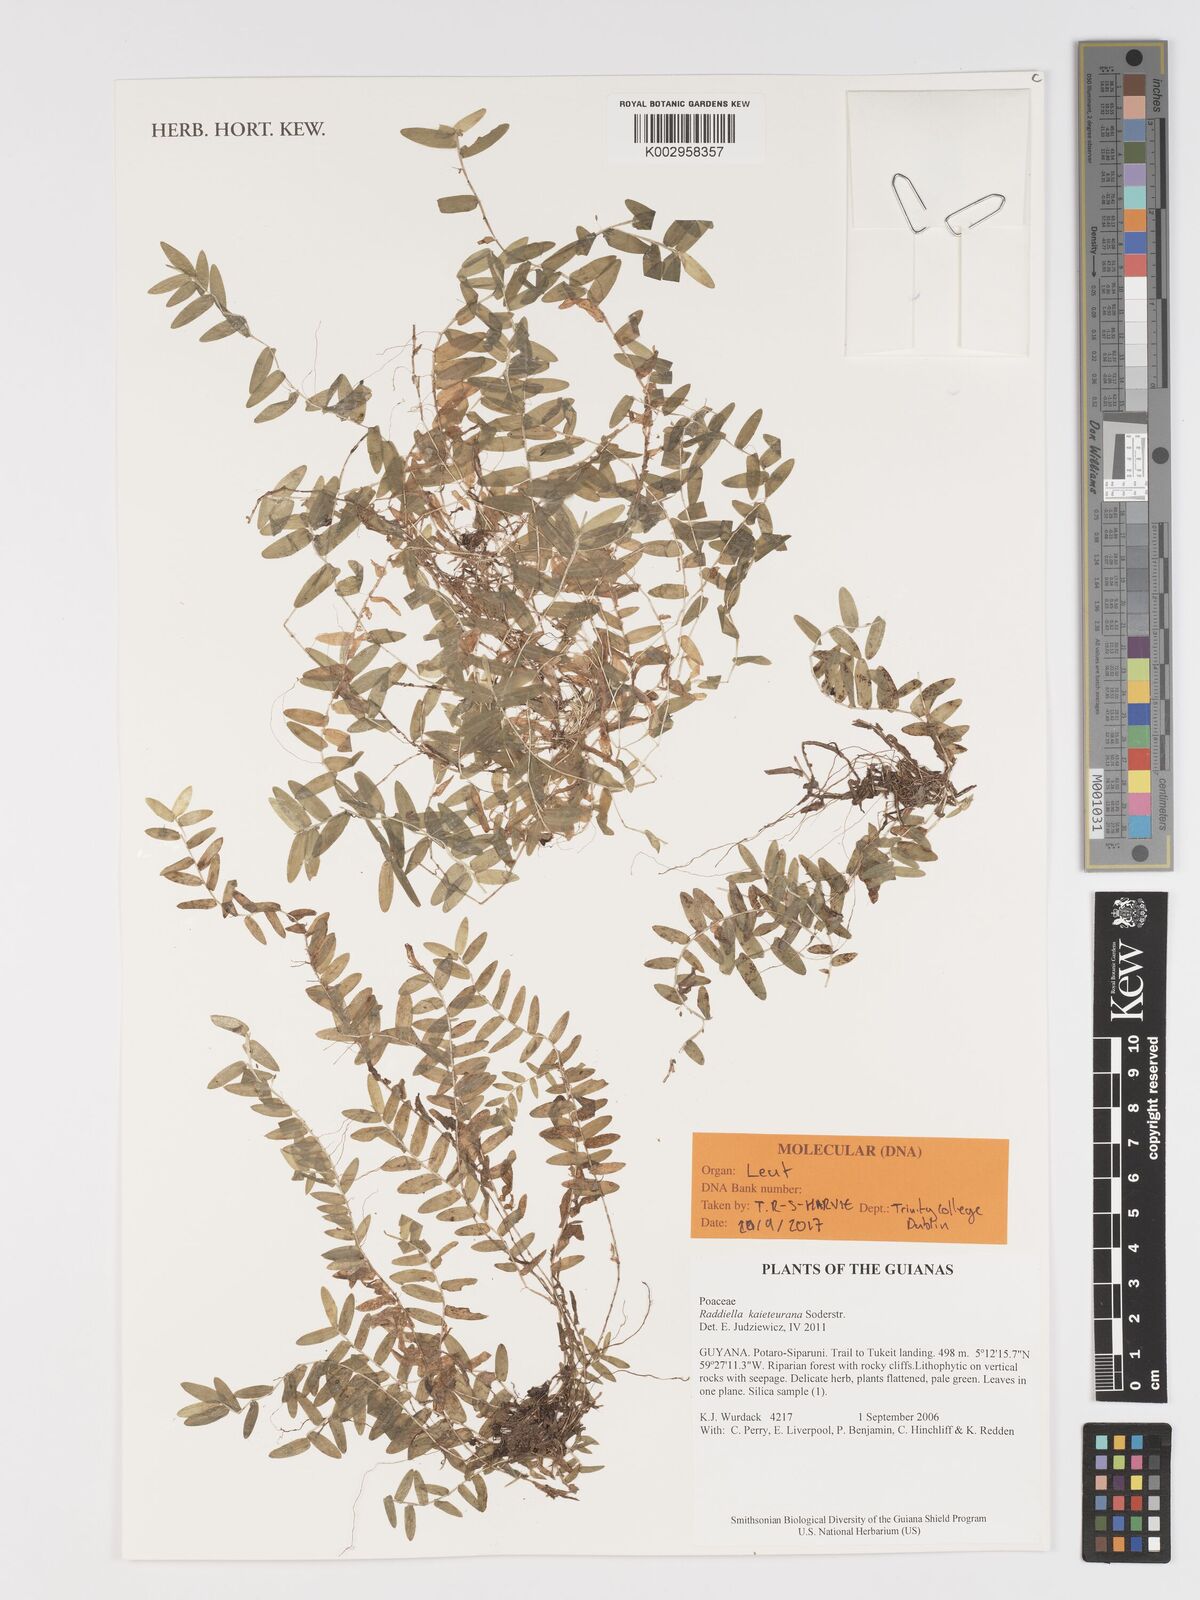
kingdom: Plantae
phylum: Tracheophyta
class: Liliopsida
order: Poales
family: Poaceae
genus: Raddiella
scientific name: Raddiella kaieteurana
